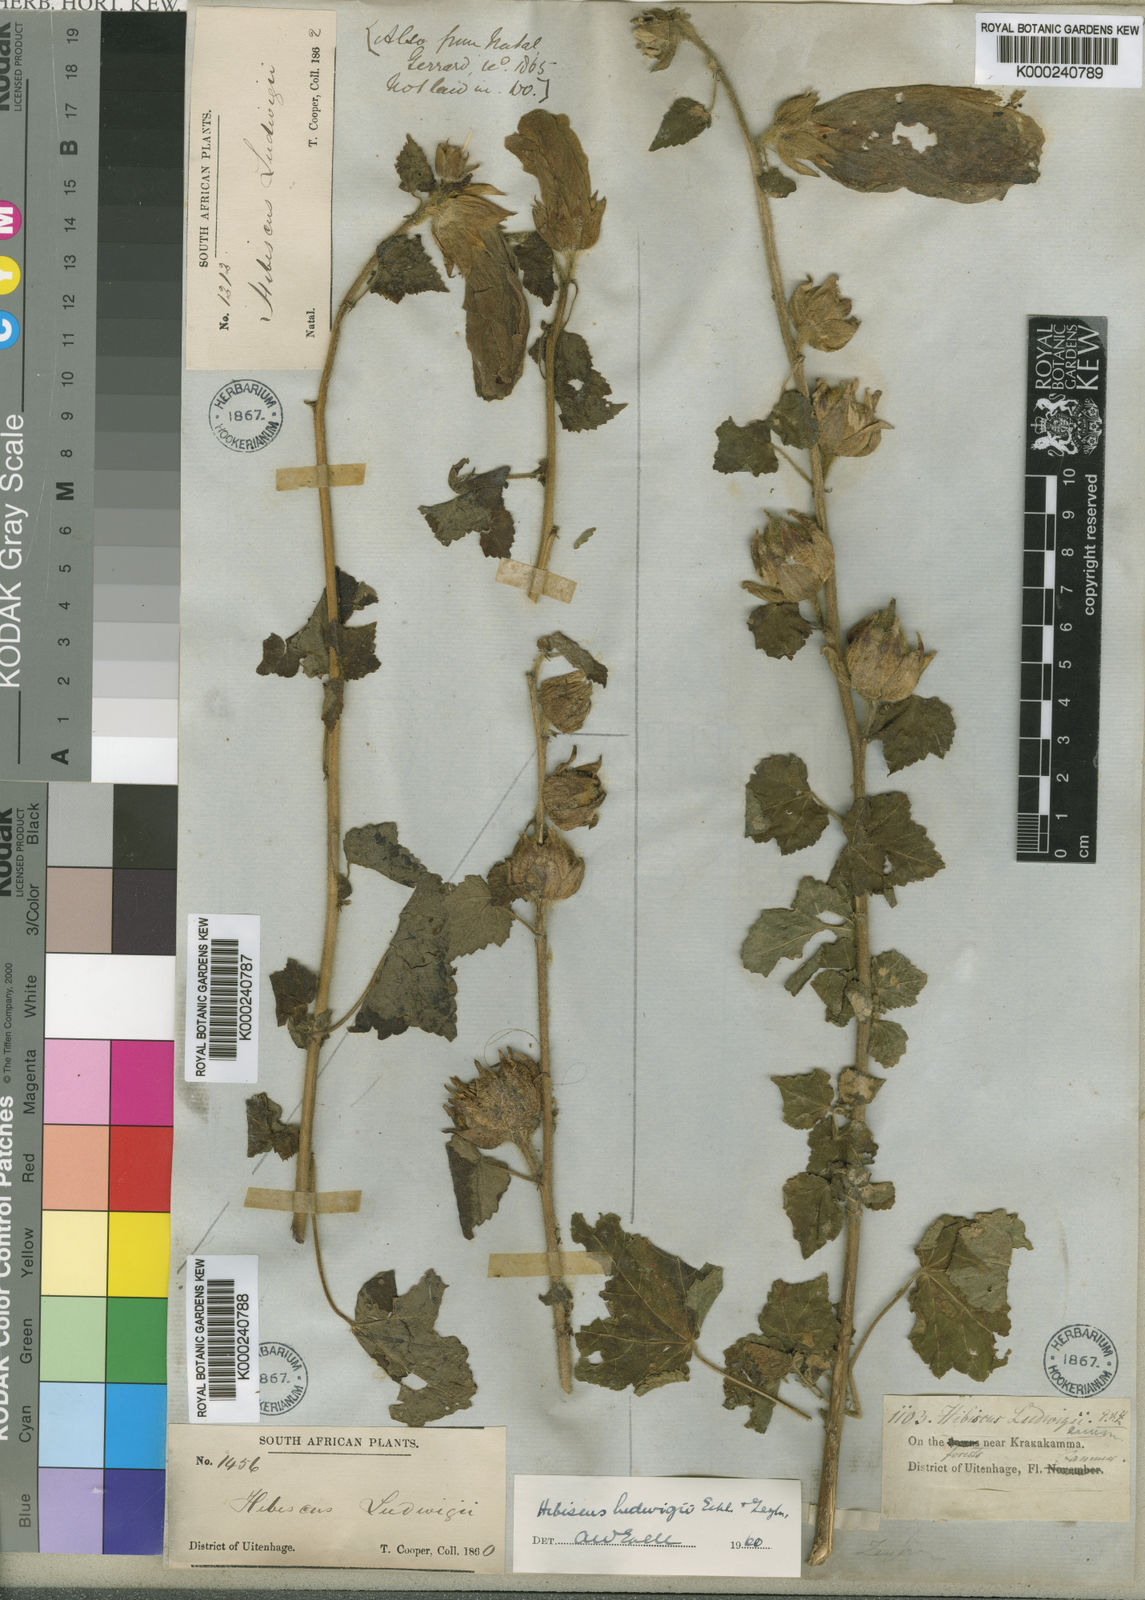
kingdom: Plantae
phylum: Tracheophyta
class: Magnoliopsida
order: Malvales
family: Malvaceae
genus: Hibiscus
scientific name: Hibiscus ludwigii
